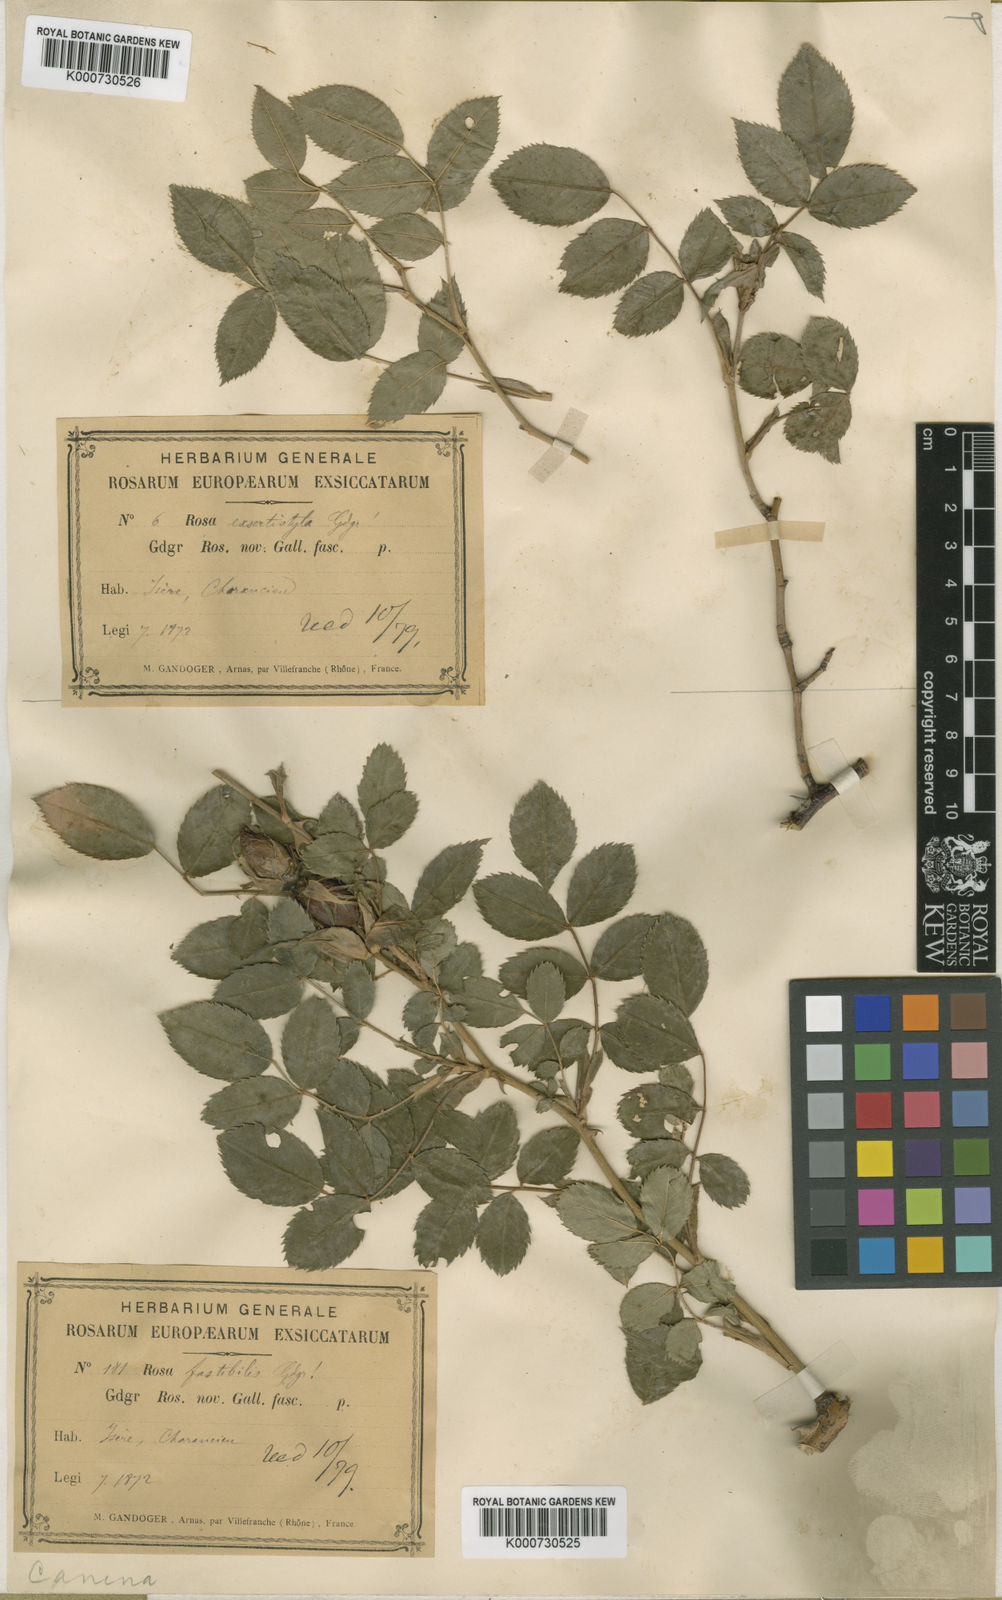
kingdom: Plantae
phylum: Tracheophyta
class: Magnoliopsida
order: Rosales
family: Rosaceae
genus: Rosa
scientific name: Rosa canina
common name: Dog rose
